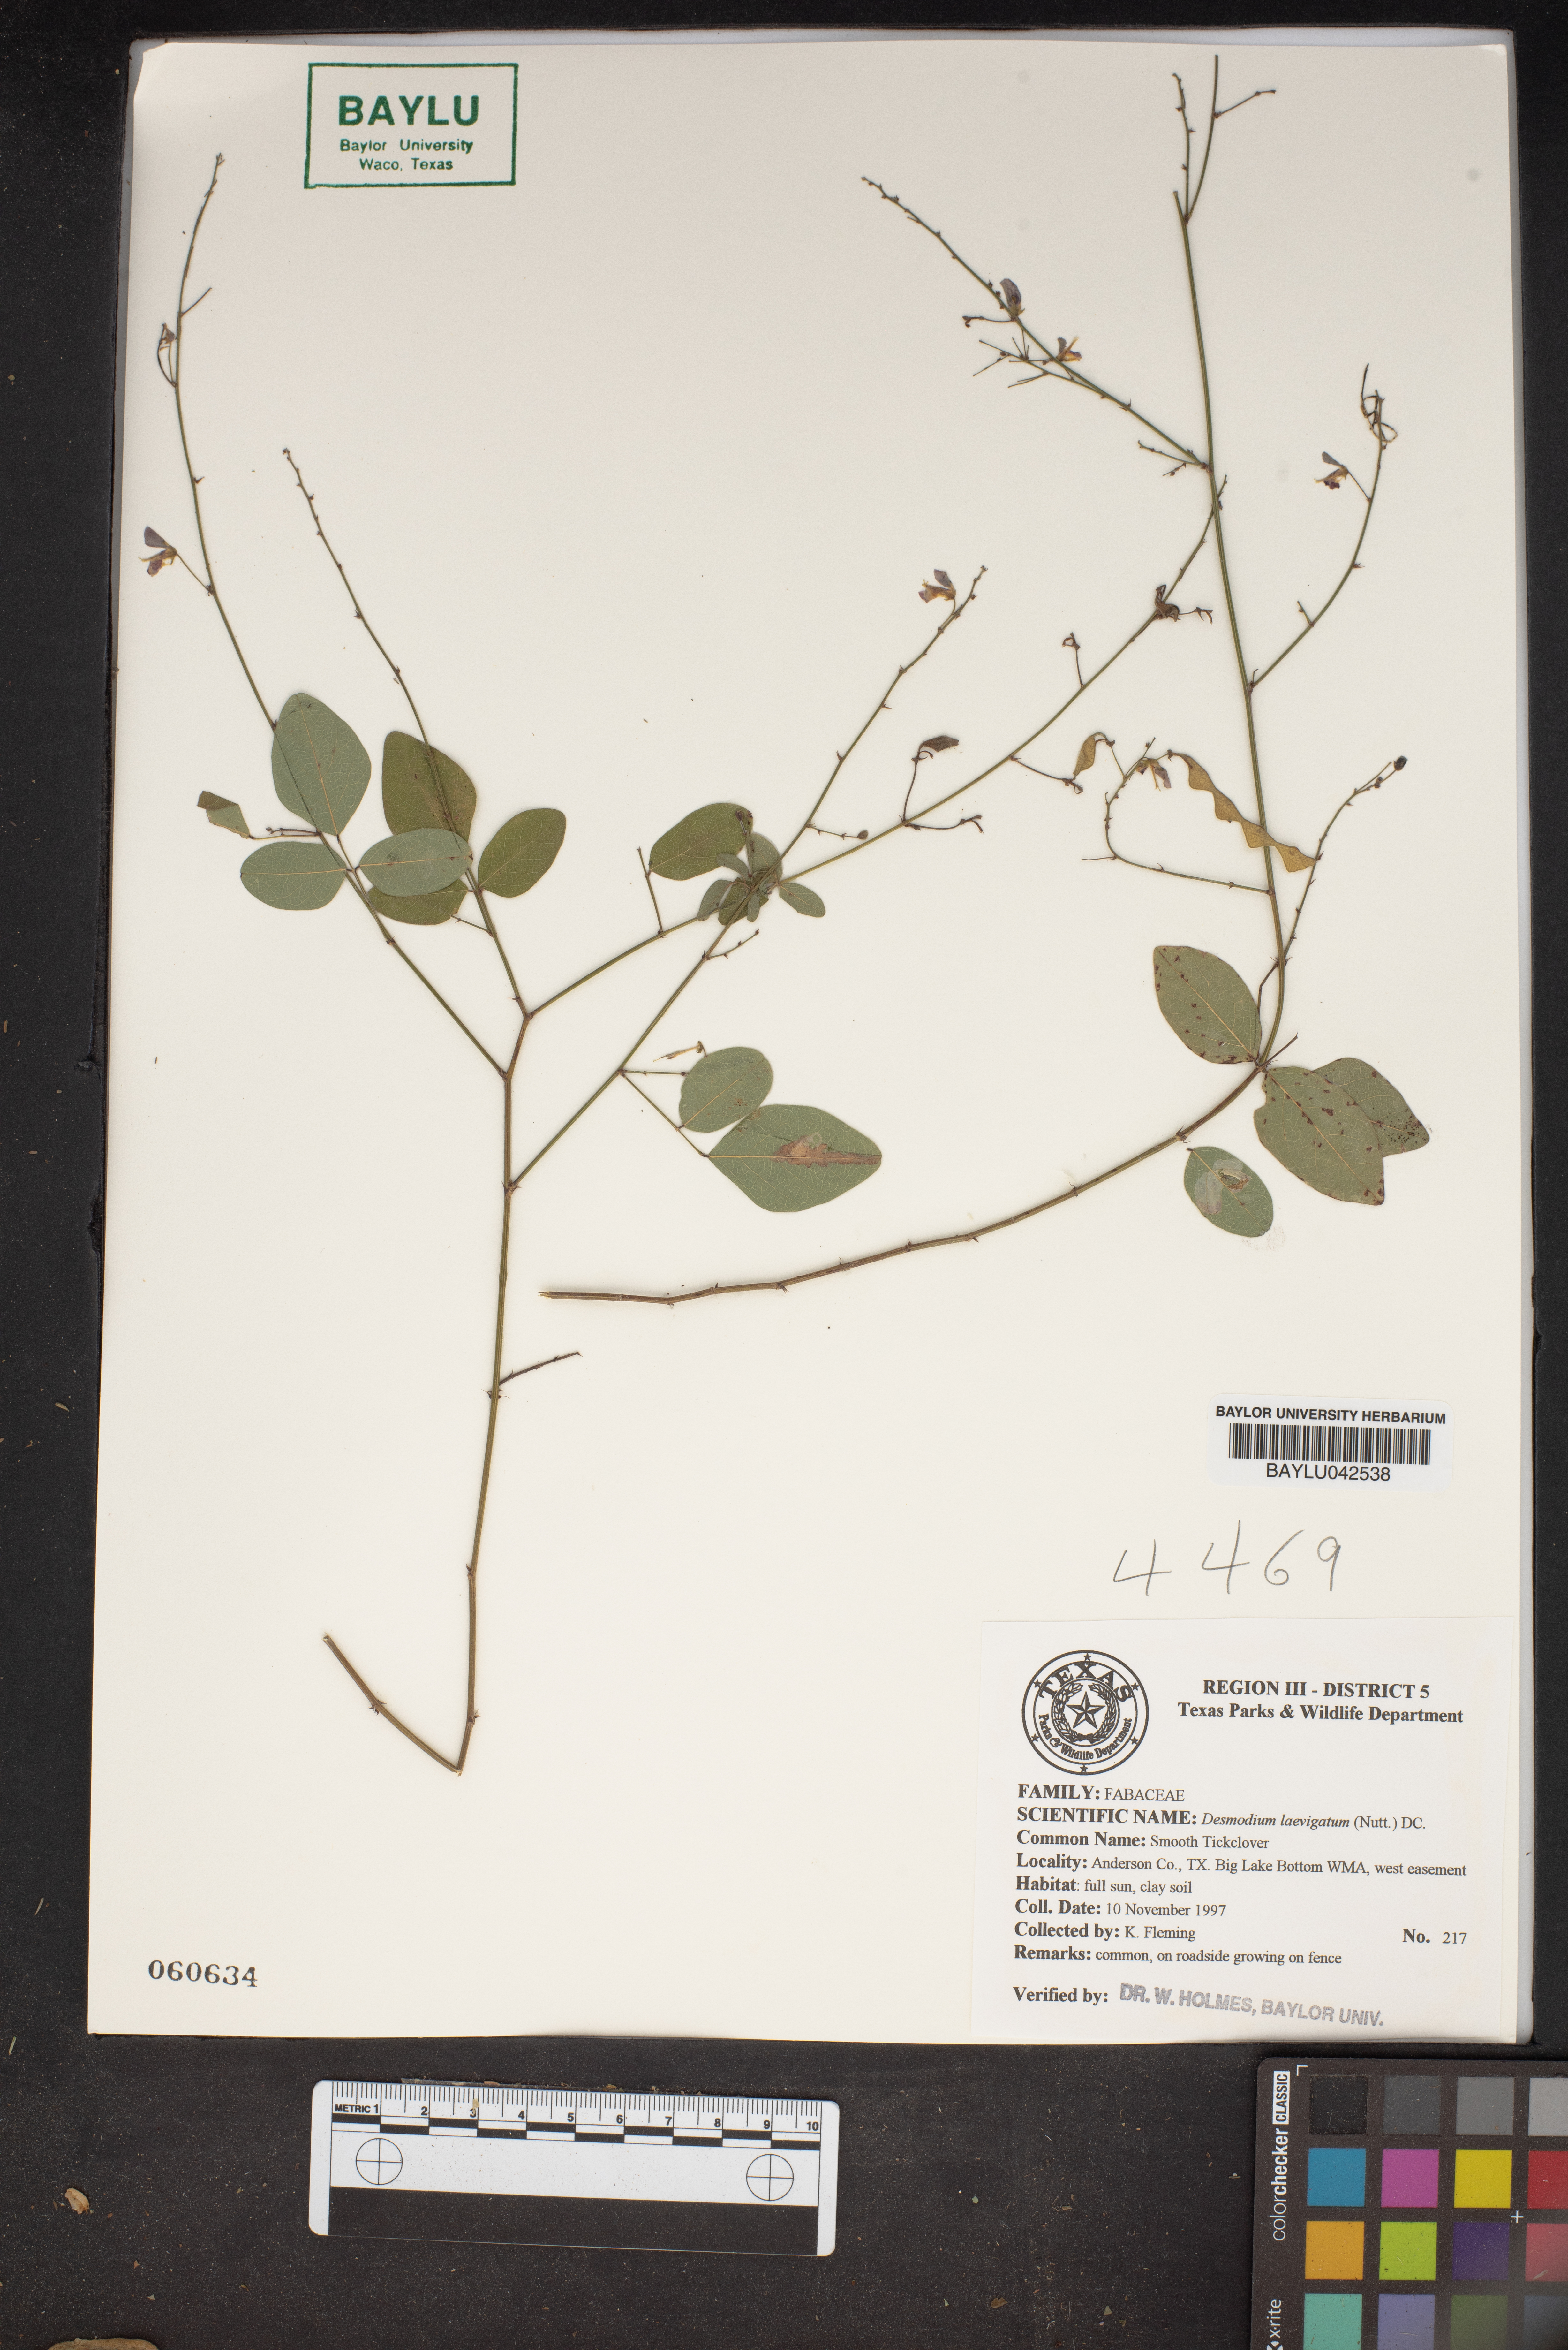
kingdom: Plantae
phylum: Tracheophyta
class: Magnoliopsida
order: Fabales
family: Fabaceae
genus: Desmodium
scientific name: Desmodium laevigatum
